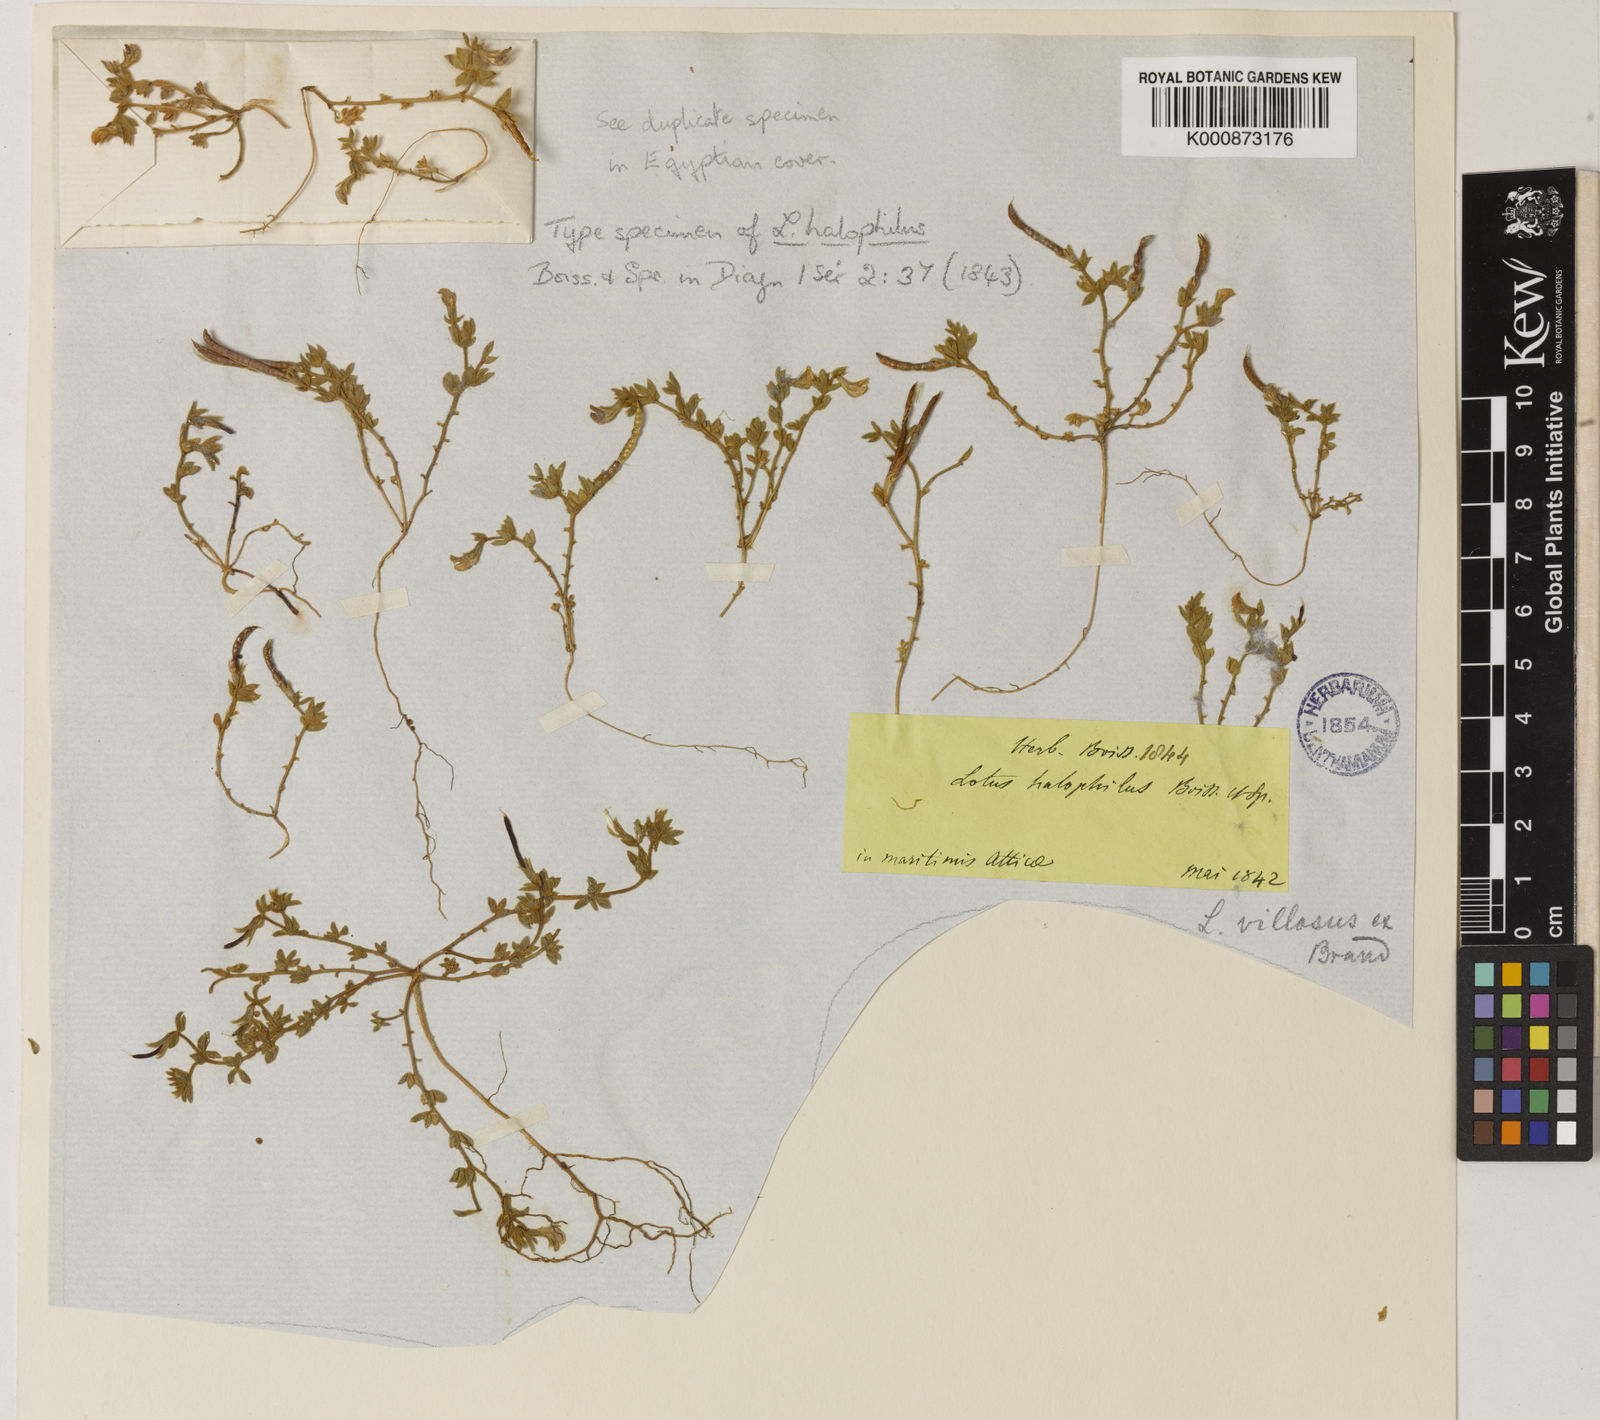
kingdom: Plantae
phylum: Tracheophyta
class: Magnoliopsida
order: Fabales
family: Fabaceae
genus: Lotus
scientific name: Lotus halophilus
